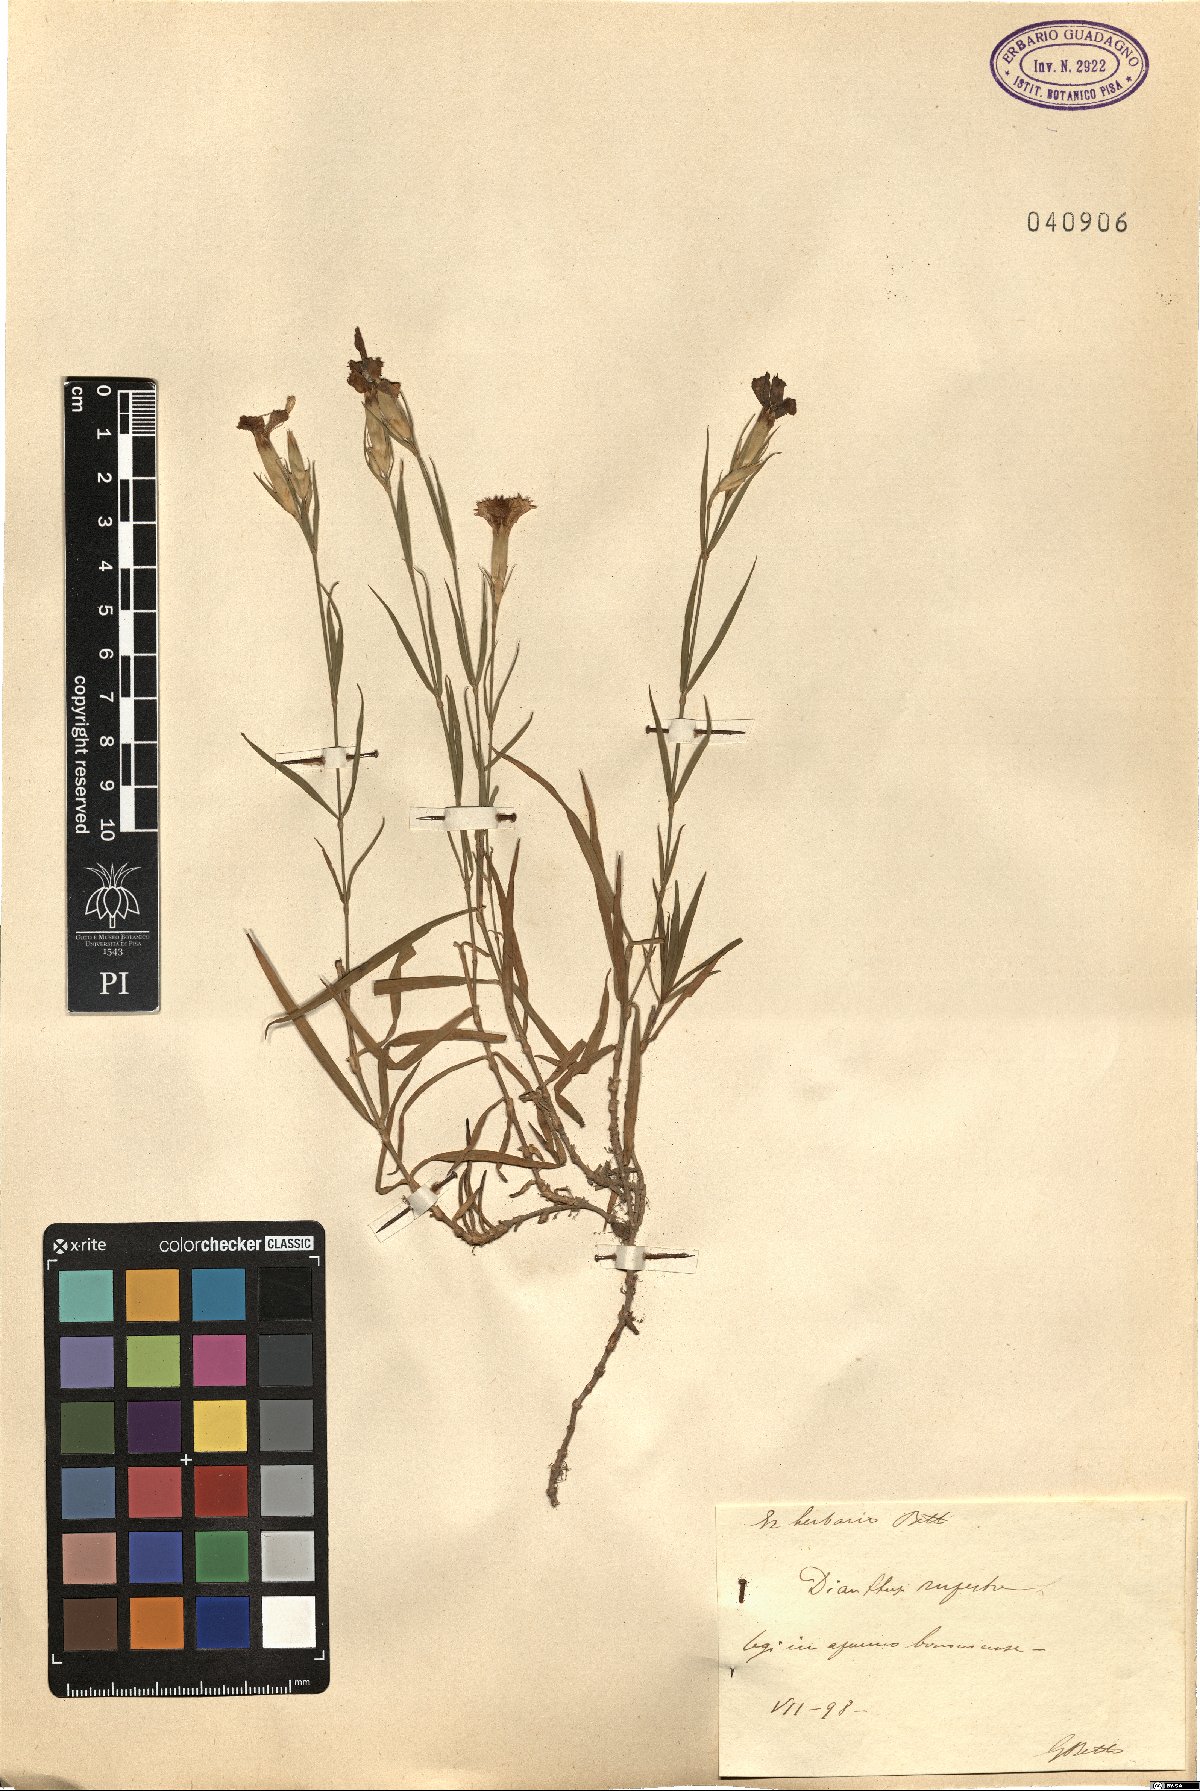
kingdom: Plantae
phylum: Tracheophyta
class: Magnoliopsida
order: Caryophyllales
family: Caryophyllaceae
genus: Dianthus
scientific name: Dianthus sylvestris
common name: Wood pink
